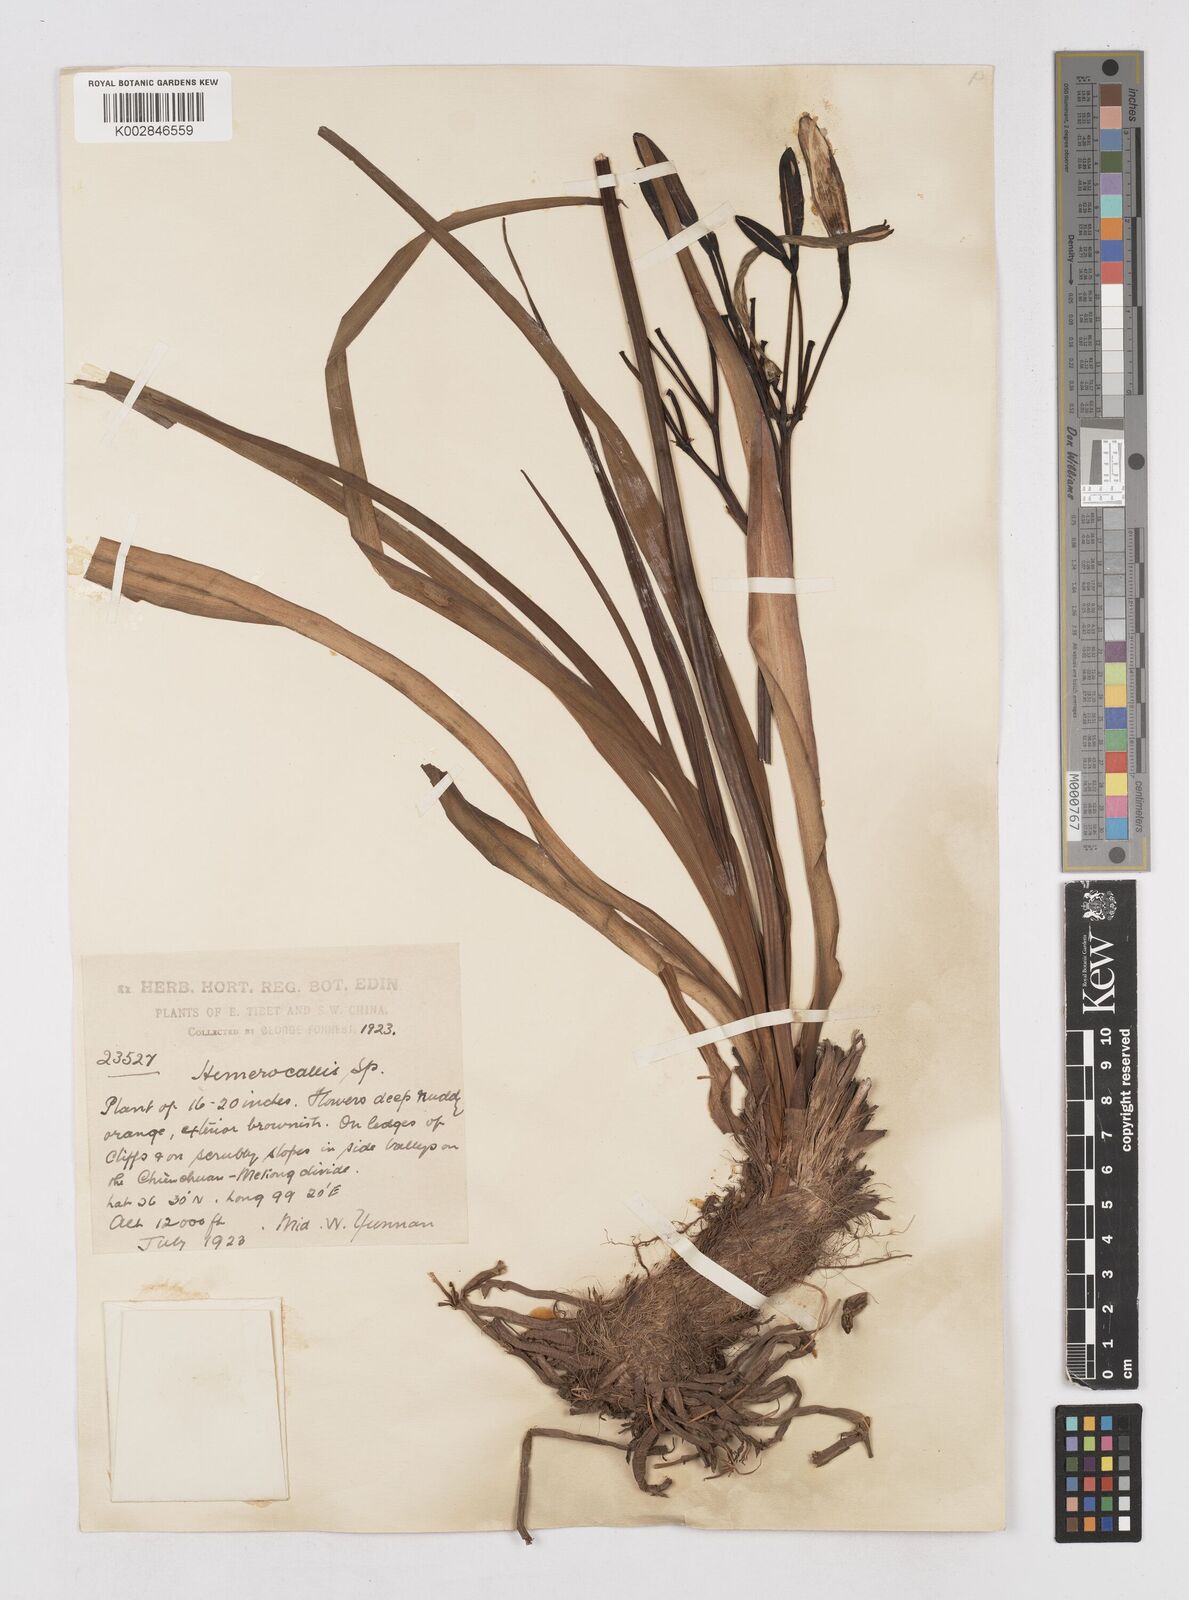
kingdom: Plantae
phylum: Tracheophyta
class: Liliopsida
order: Asparagales
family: Asphodelaceae
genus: Hemerocallis
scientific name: Hemerocallis forrestii
